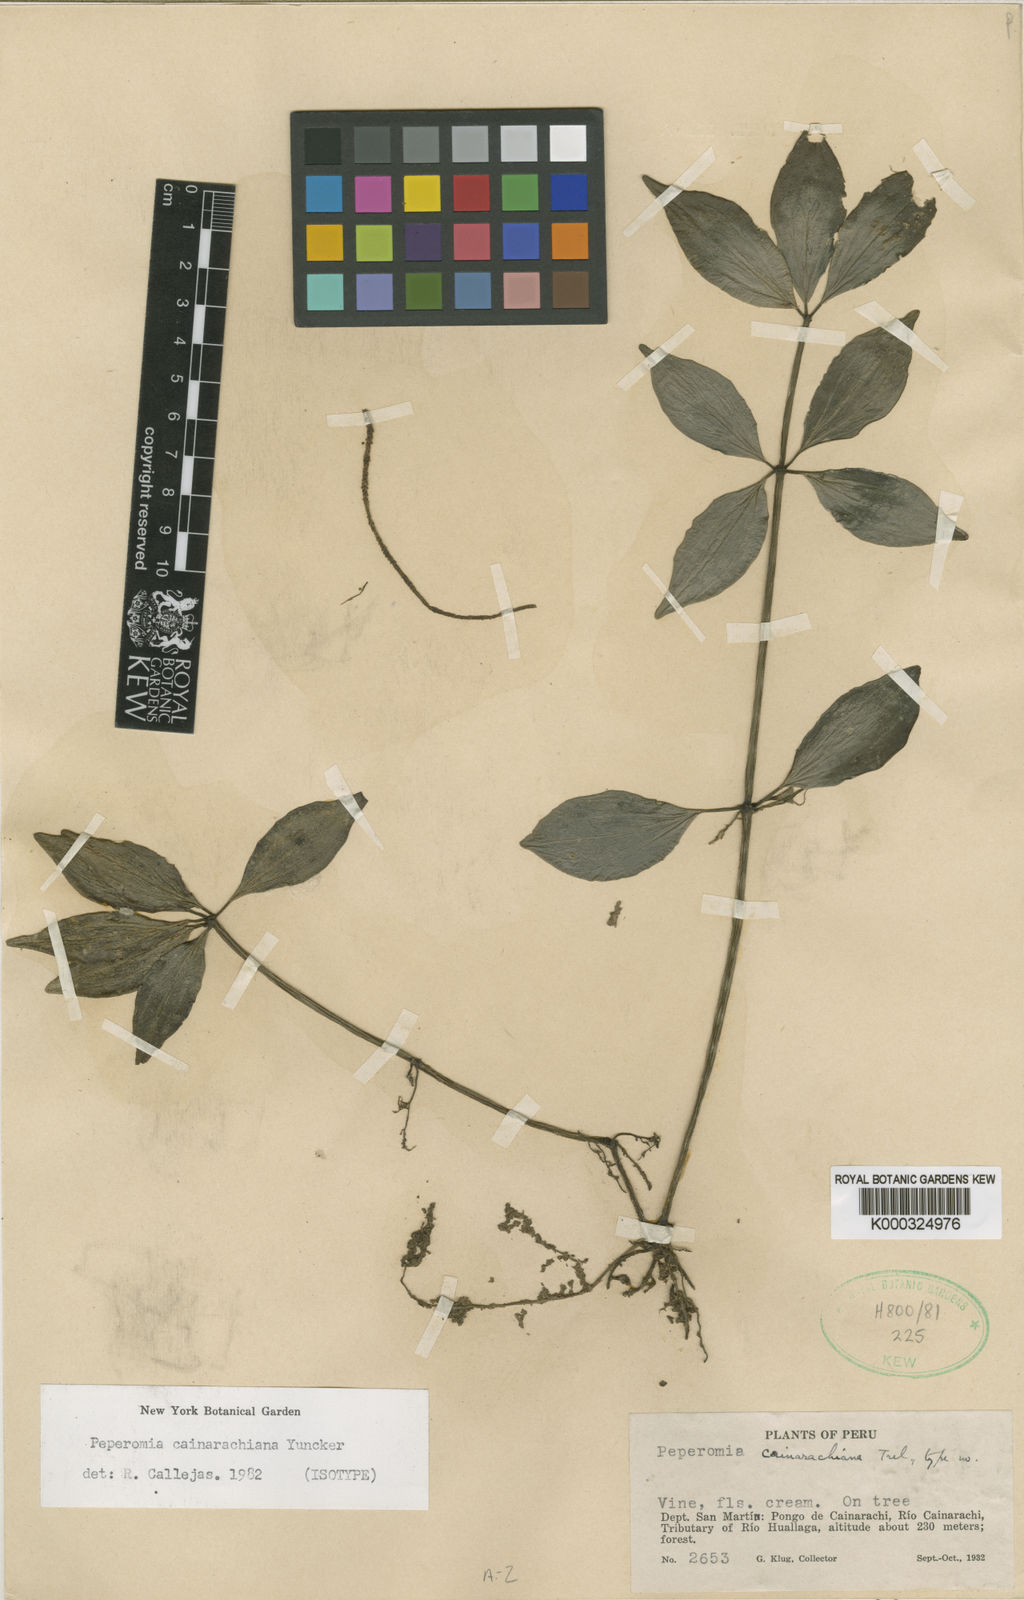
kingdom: Plantae
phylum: Tracheophyta
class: Magnoliopsida
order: Piperales
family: Piperaceae
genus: Peperomia
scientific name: Peperomia cainarachiana
